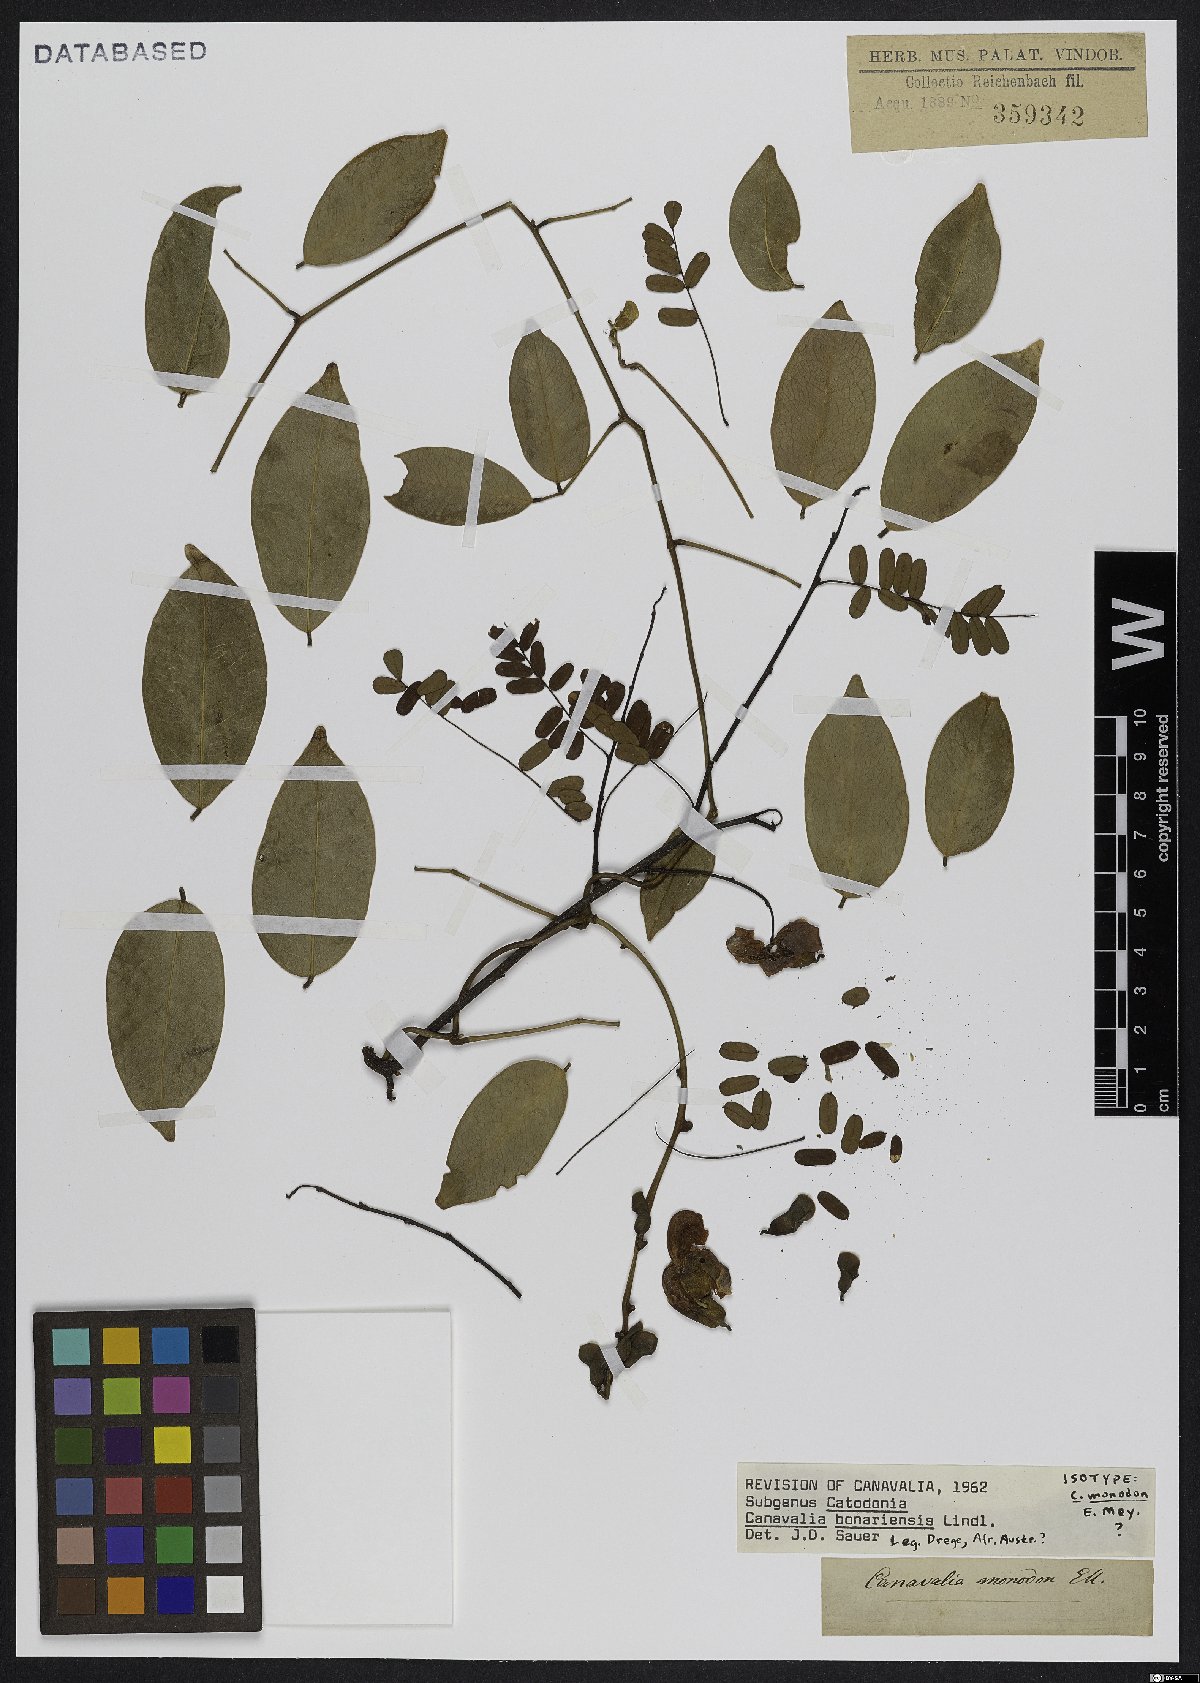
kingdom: Plantae
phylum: Tracheophyta
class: Magnoliopsida
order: Fabales
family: Fabaceae
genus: Canavalia
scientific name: Canavalia bonariensis
